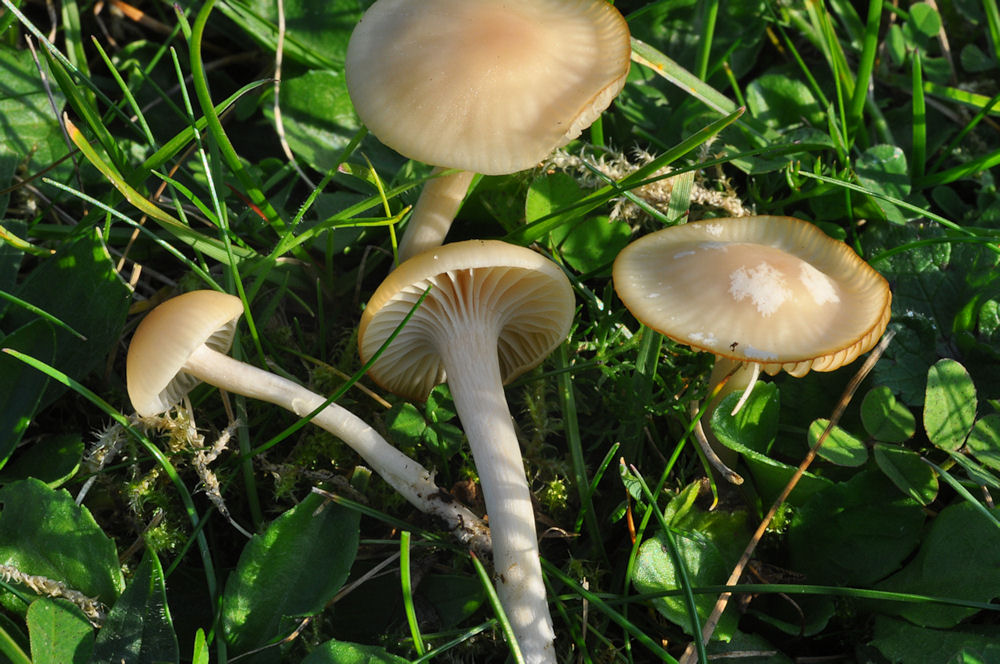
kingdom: Fungi
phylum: Basidiomycota
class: Agaricomycetes
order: Agaricales
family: Hygrophoraceae
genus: Cuphophyllus
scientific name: Cuphophyllus russocoriaceus
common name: ruslæder-vokshat
